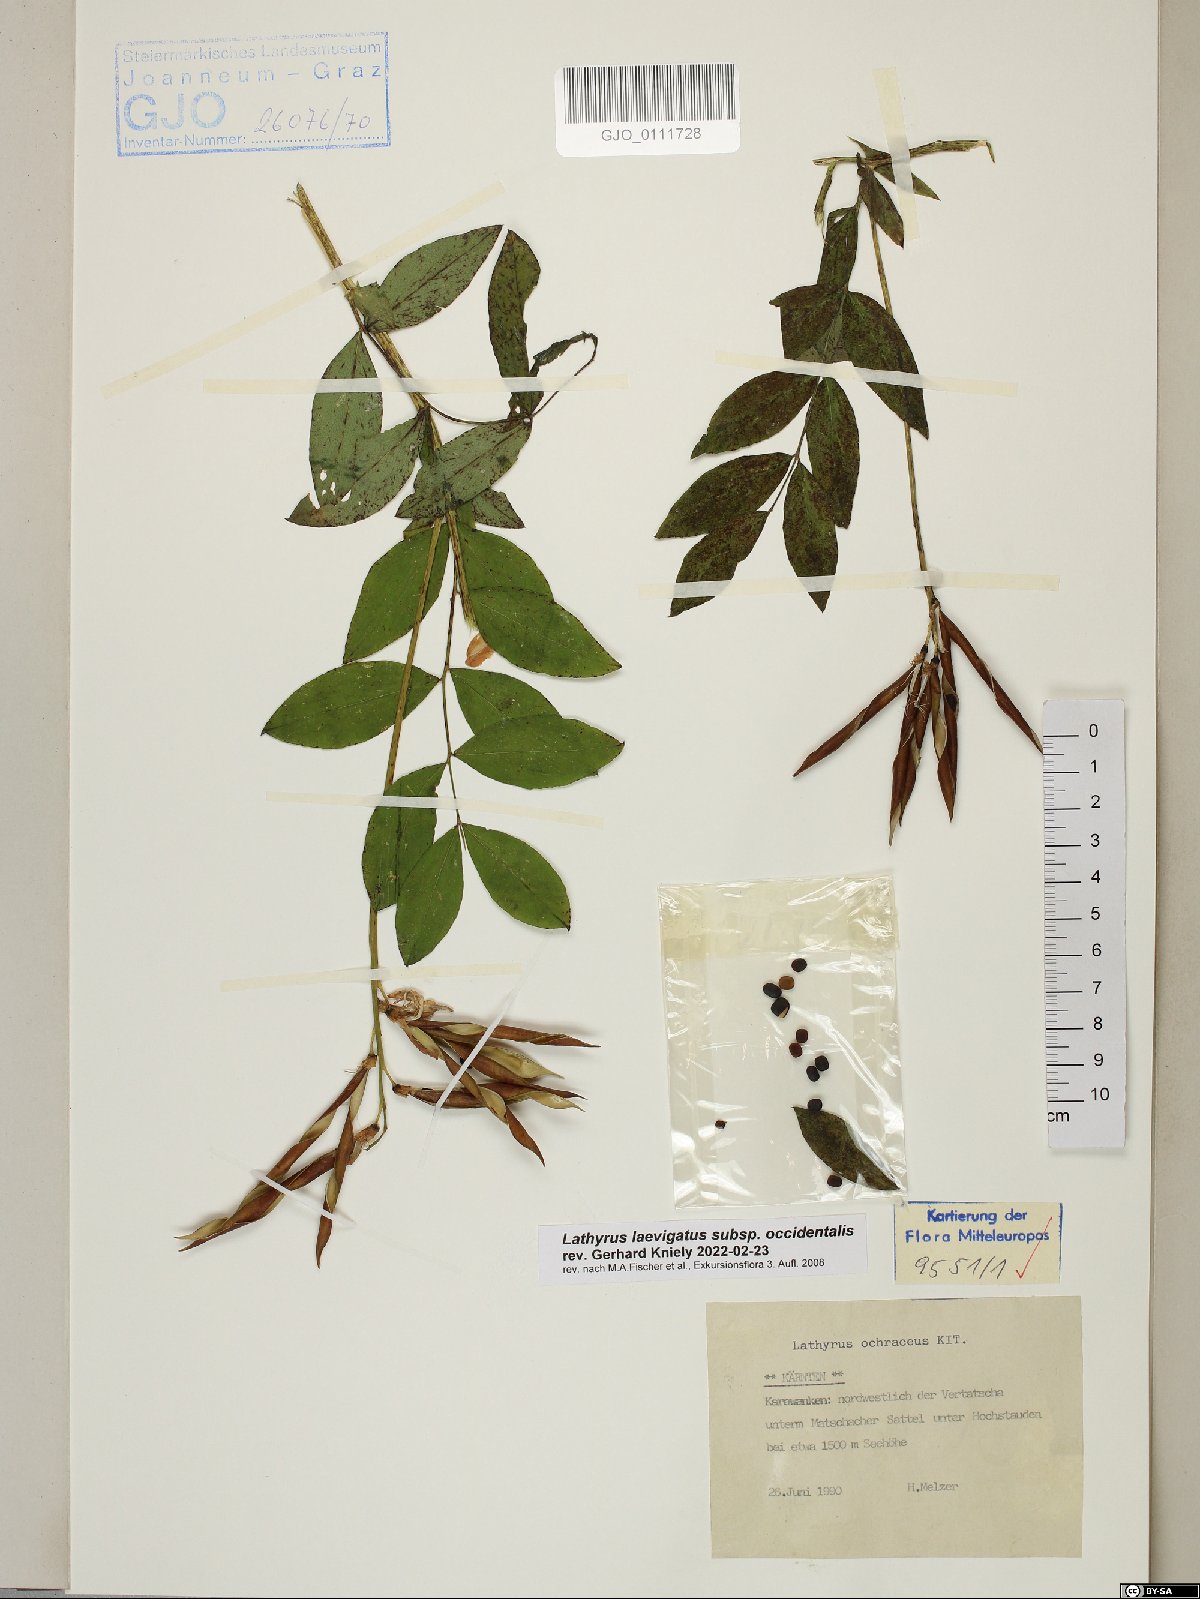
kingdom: Plantae
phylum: Tracheophyta
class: Magnoliopsida
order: Fabales
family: Fabaceae
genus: Lathyrus
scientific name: Lathyrus laevigatus
